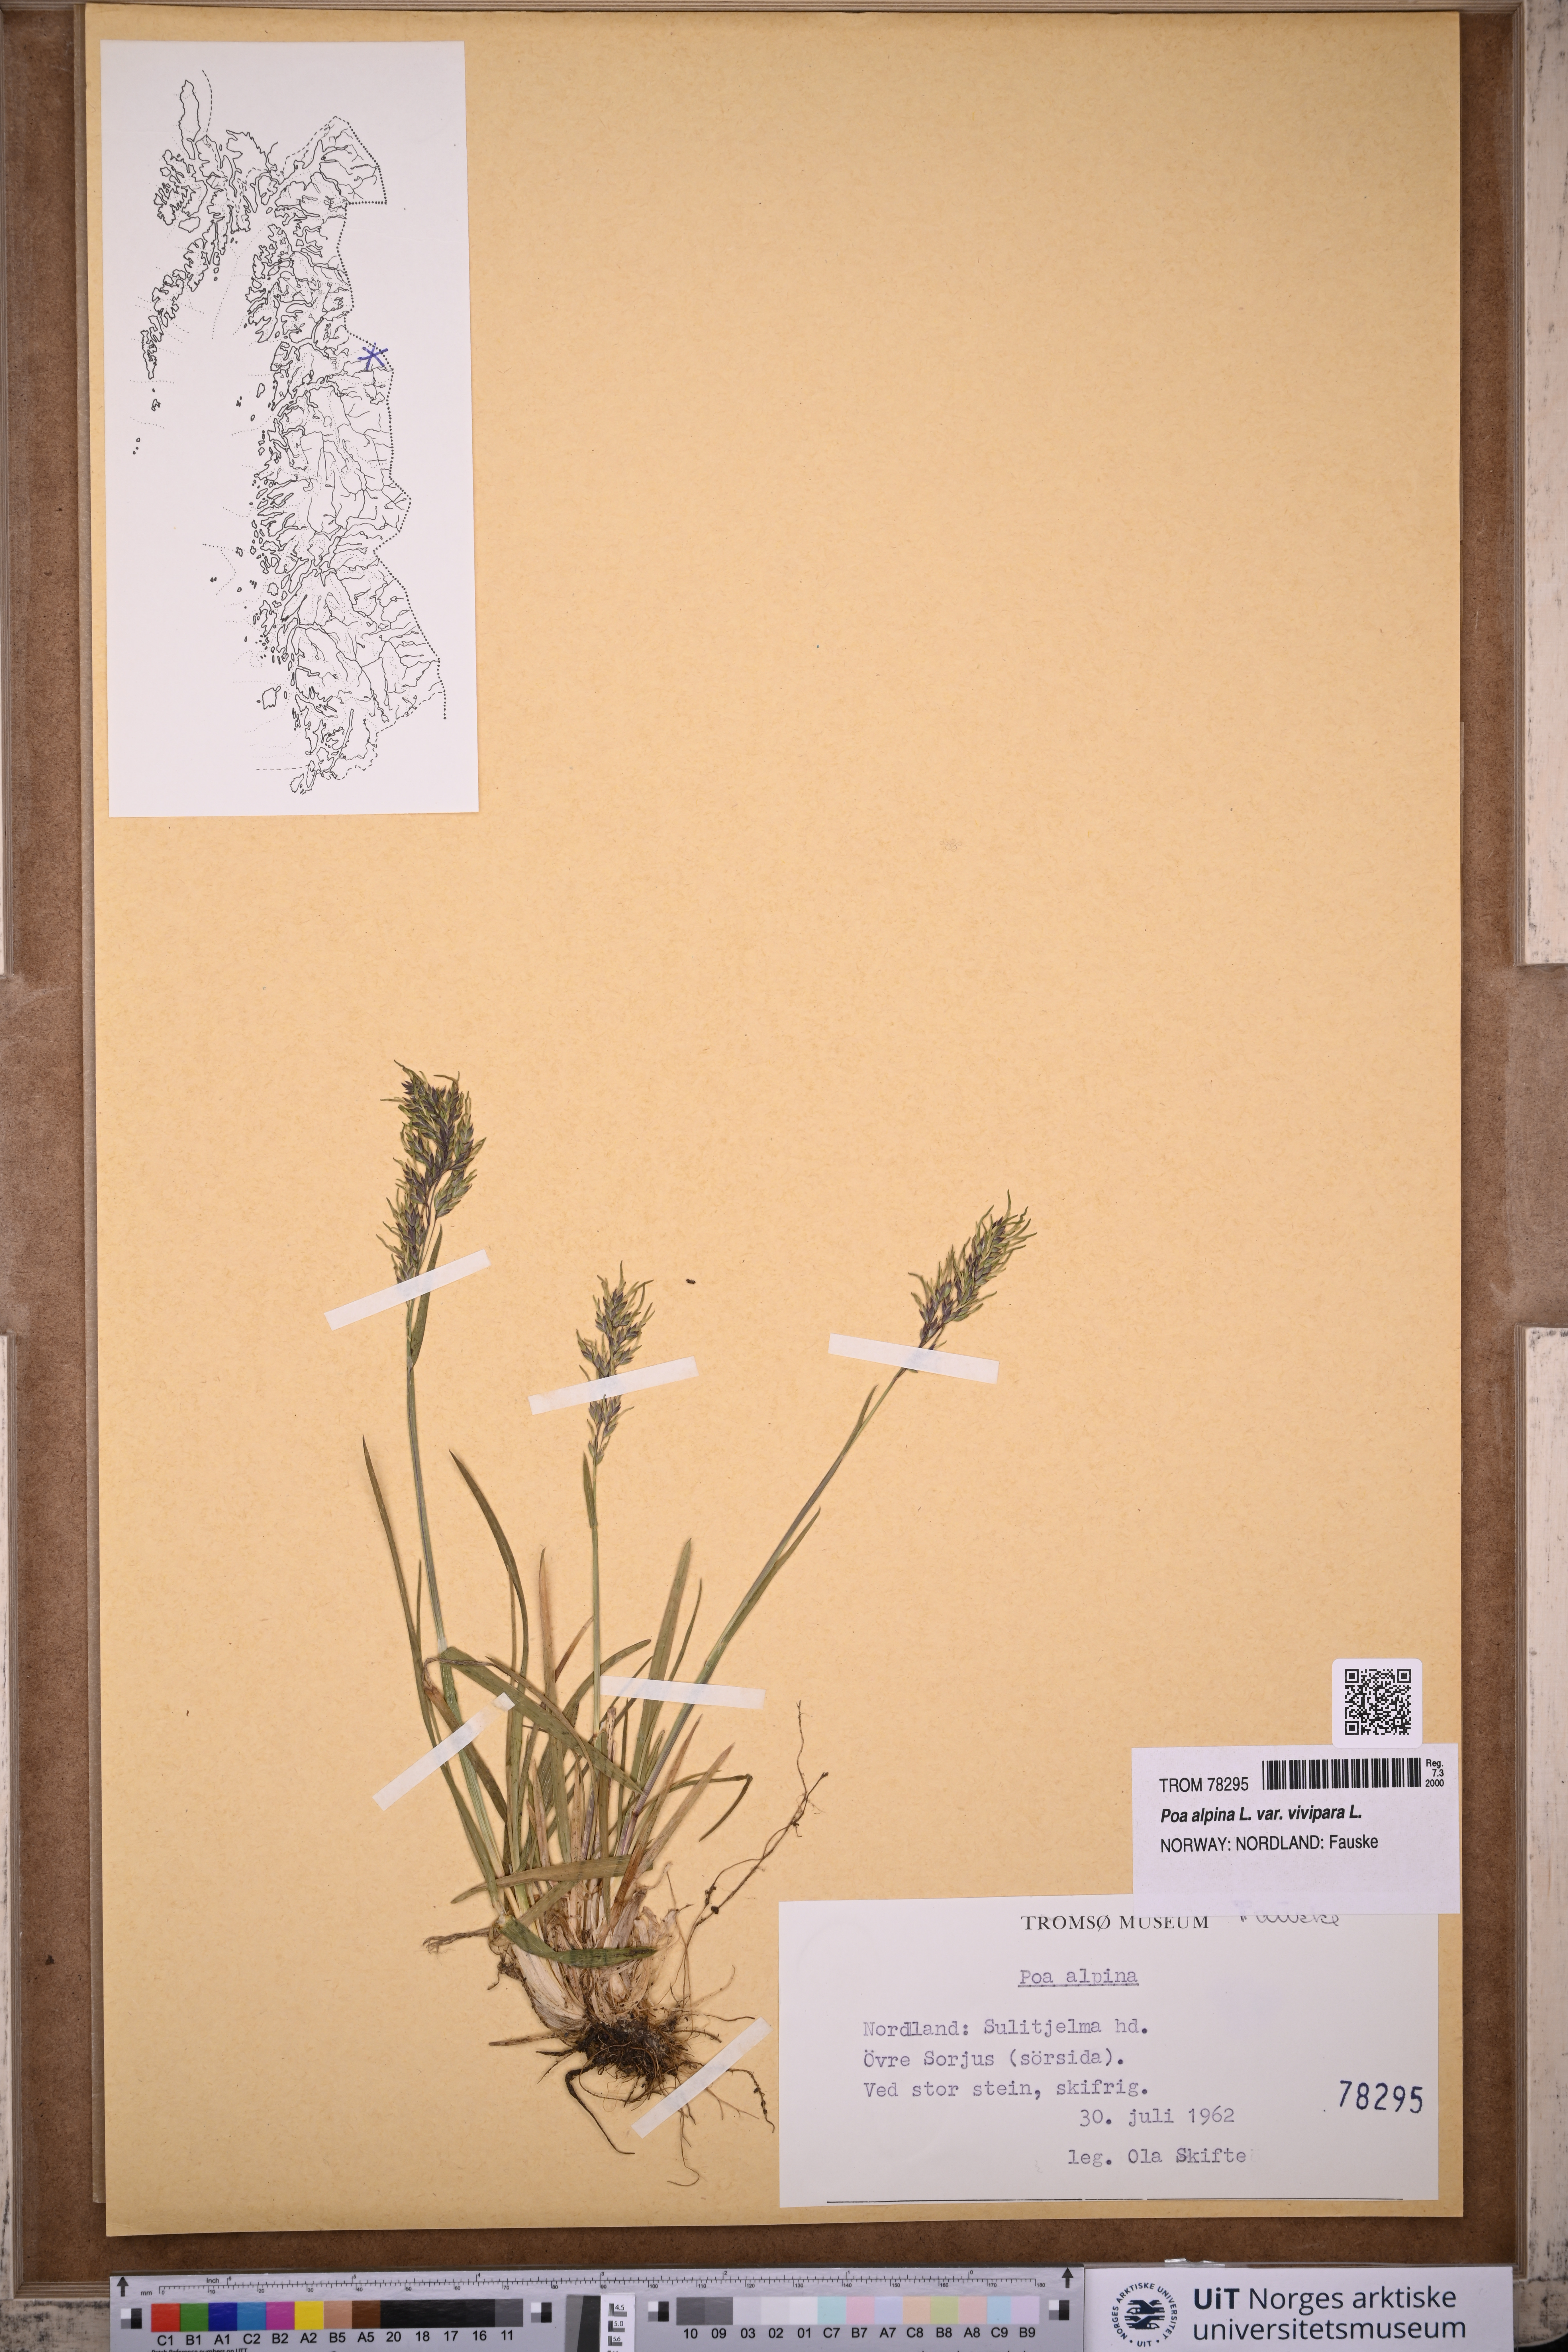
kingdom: Plantae
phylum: Tracheophyta
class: Liliopsida
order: Poales
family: Poaceae
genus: Poa
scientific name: Poa alpina
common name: Alpine bluegrass
